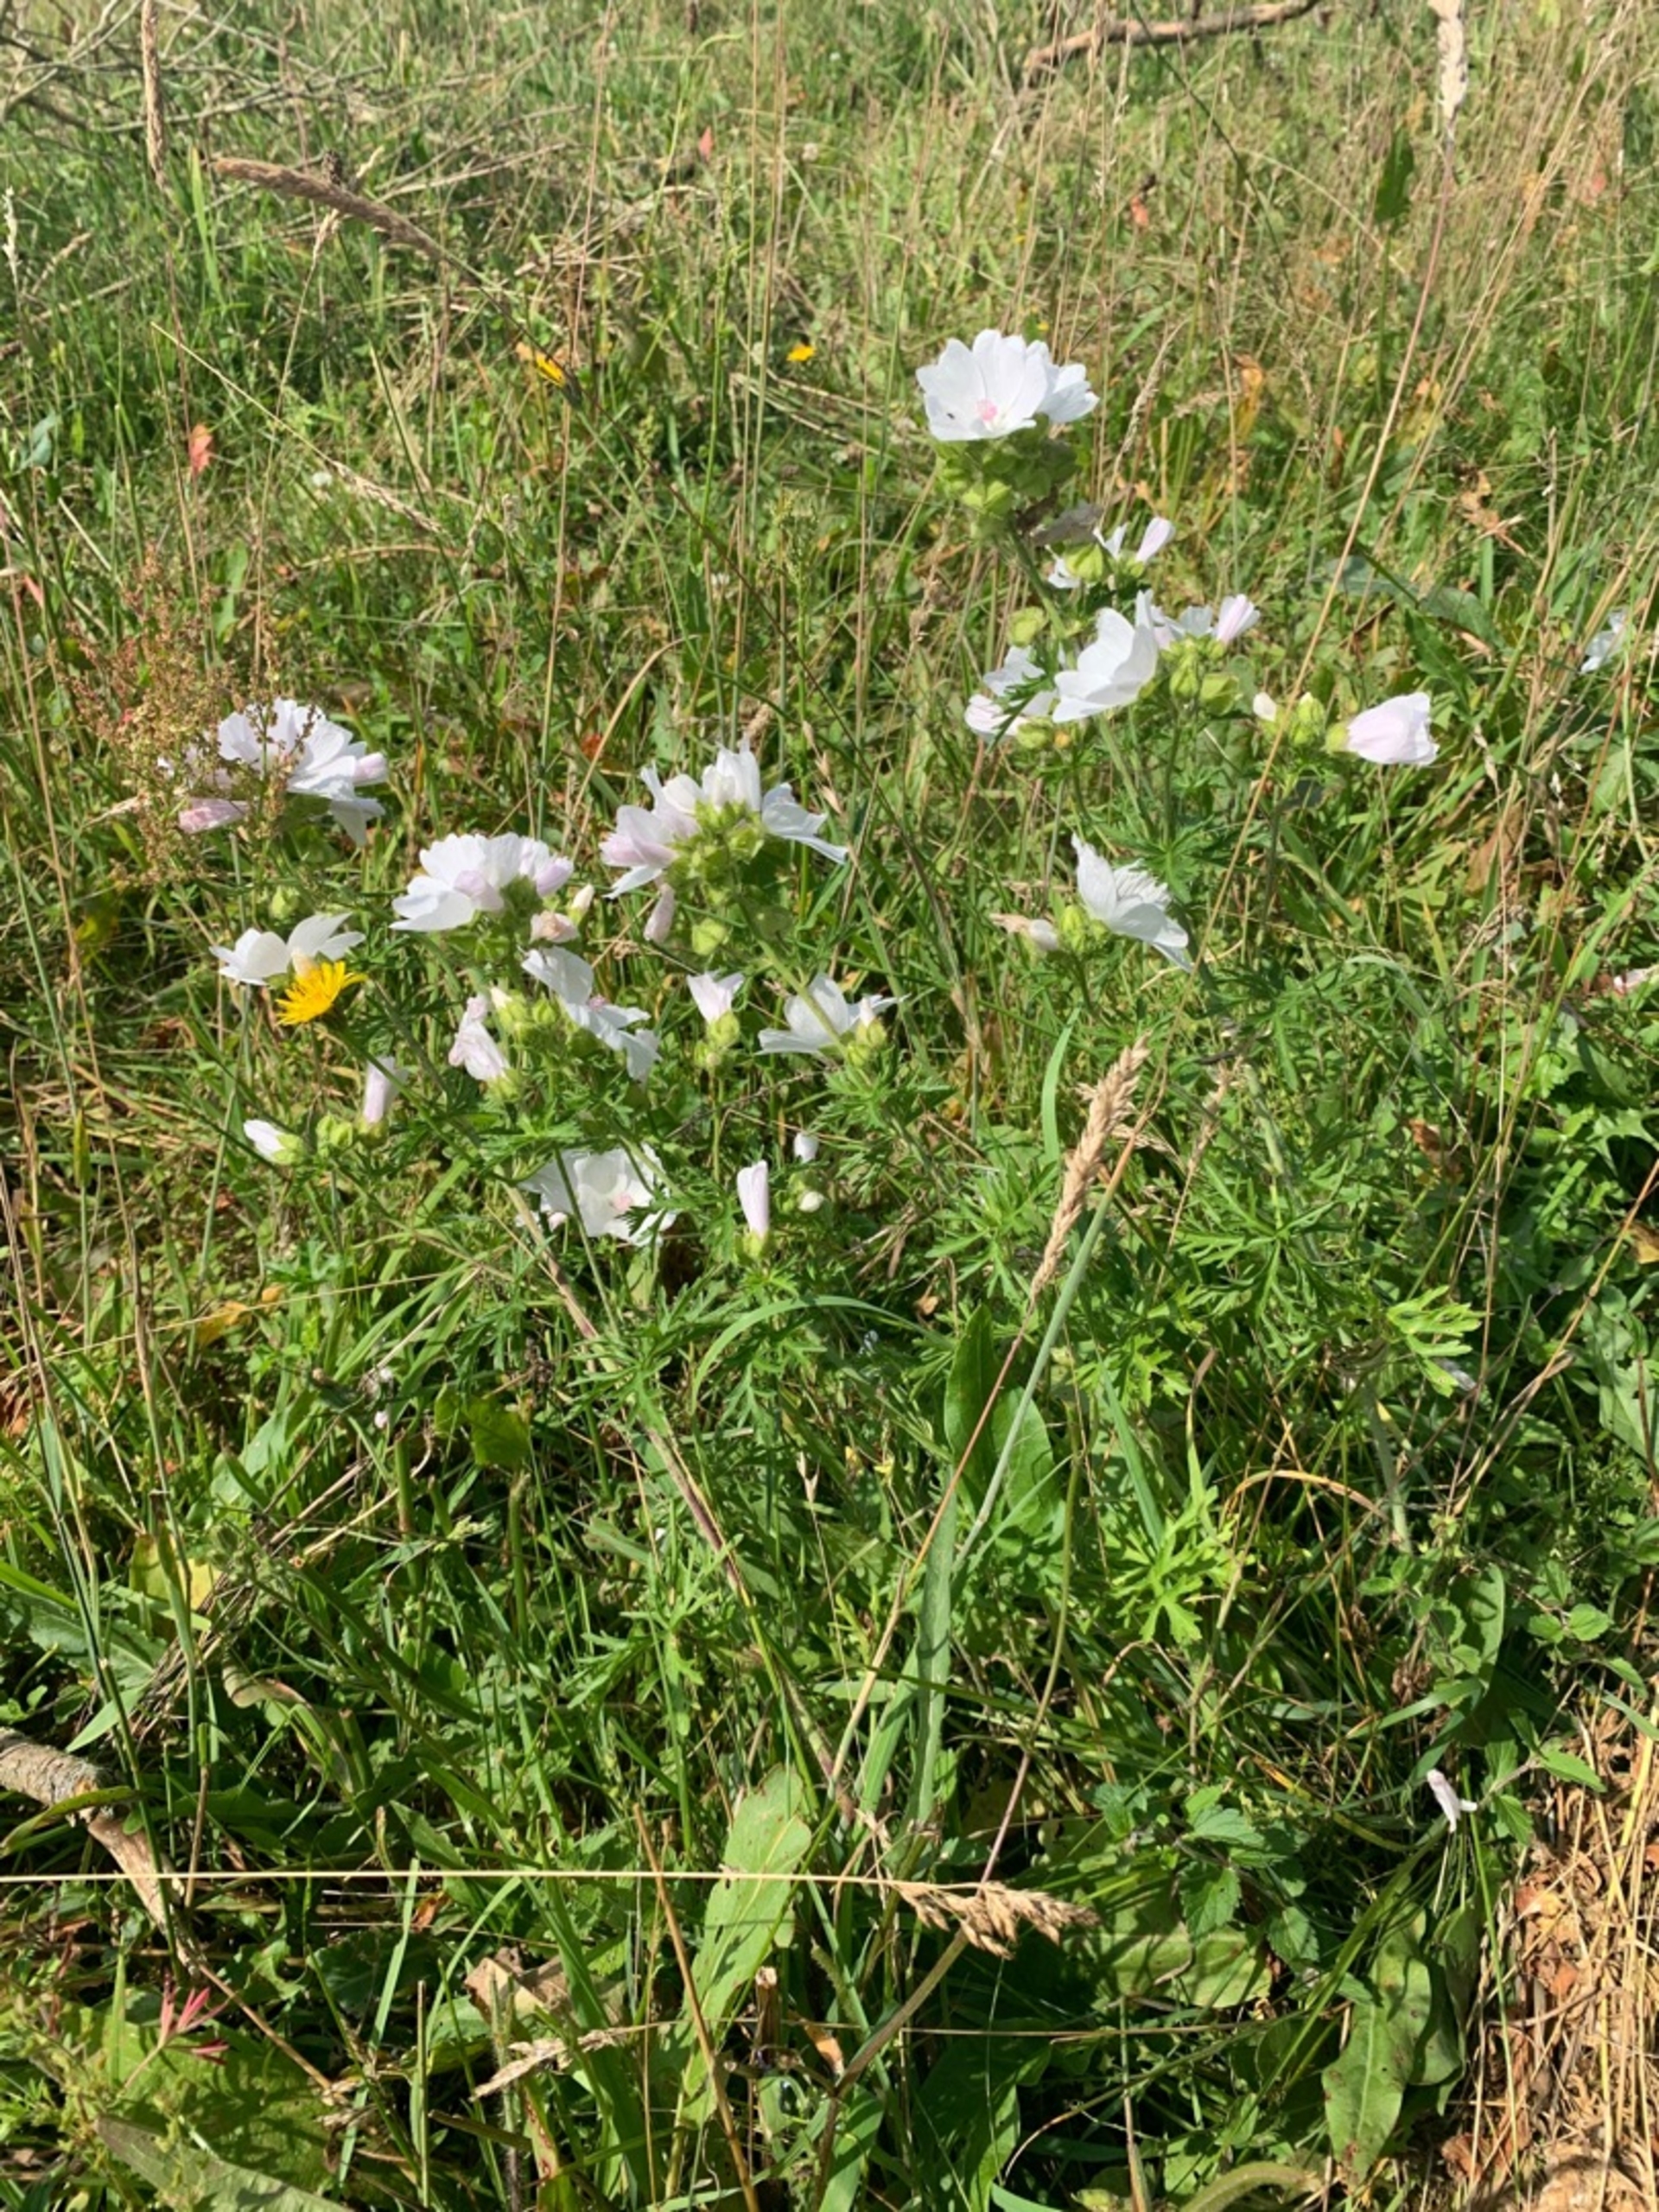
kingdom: Plantae
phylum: Tracheophyta
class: Magnoliopsida
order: Malvales
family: Malvaceae
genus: Malva
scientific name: Malva moschata
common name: Moskus-katost
